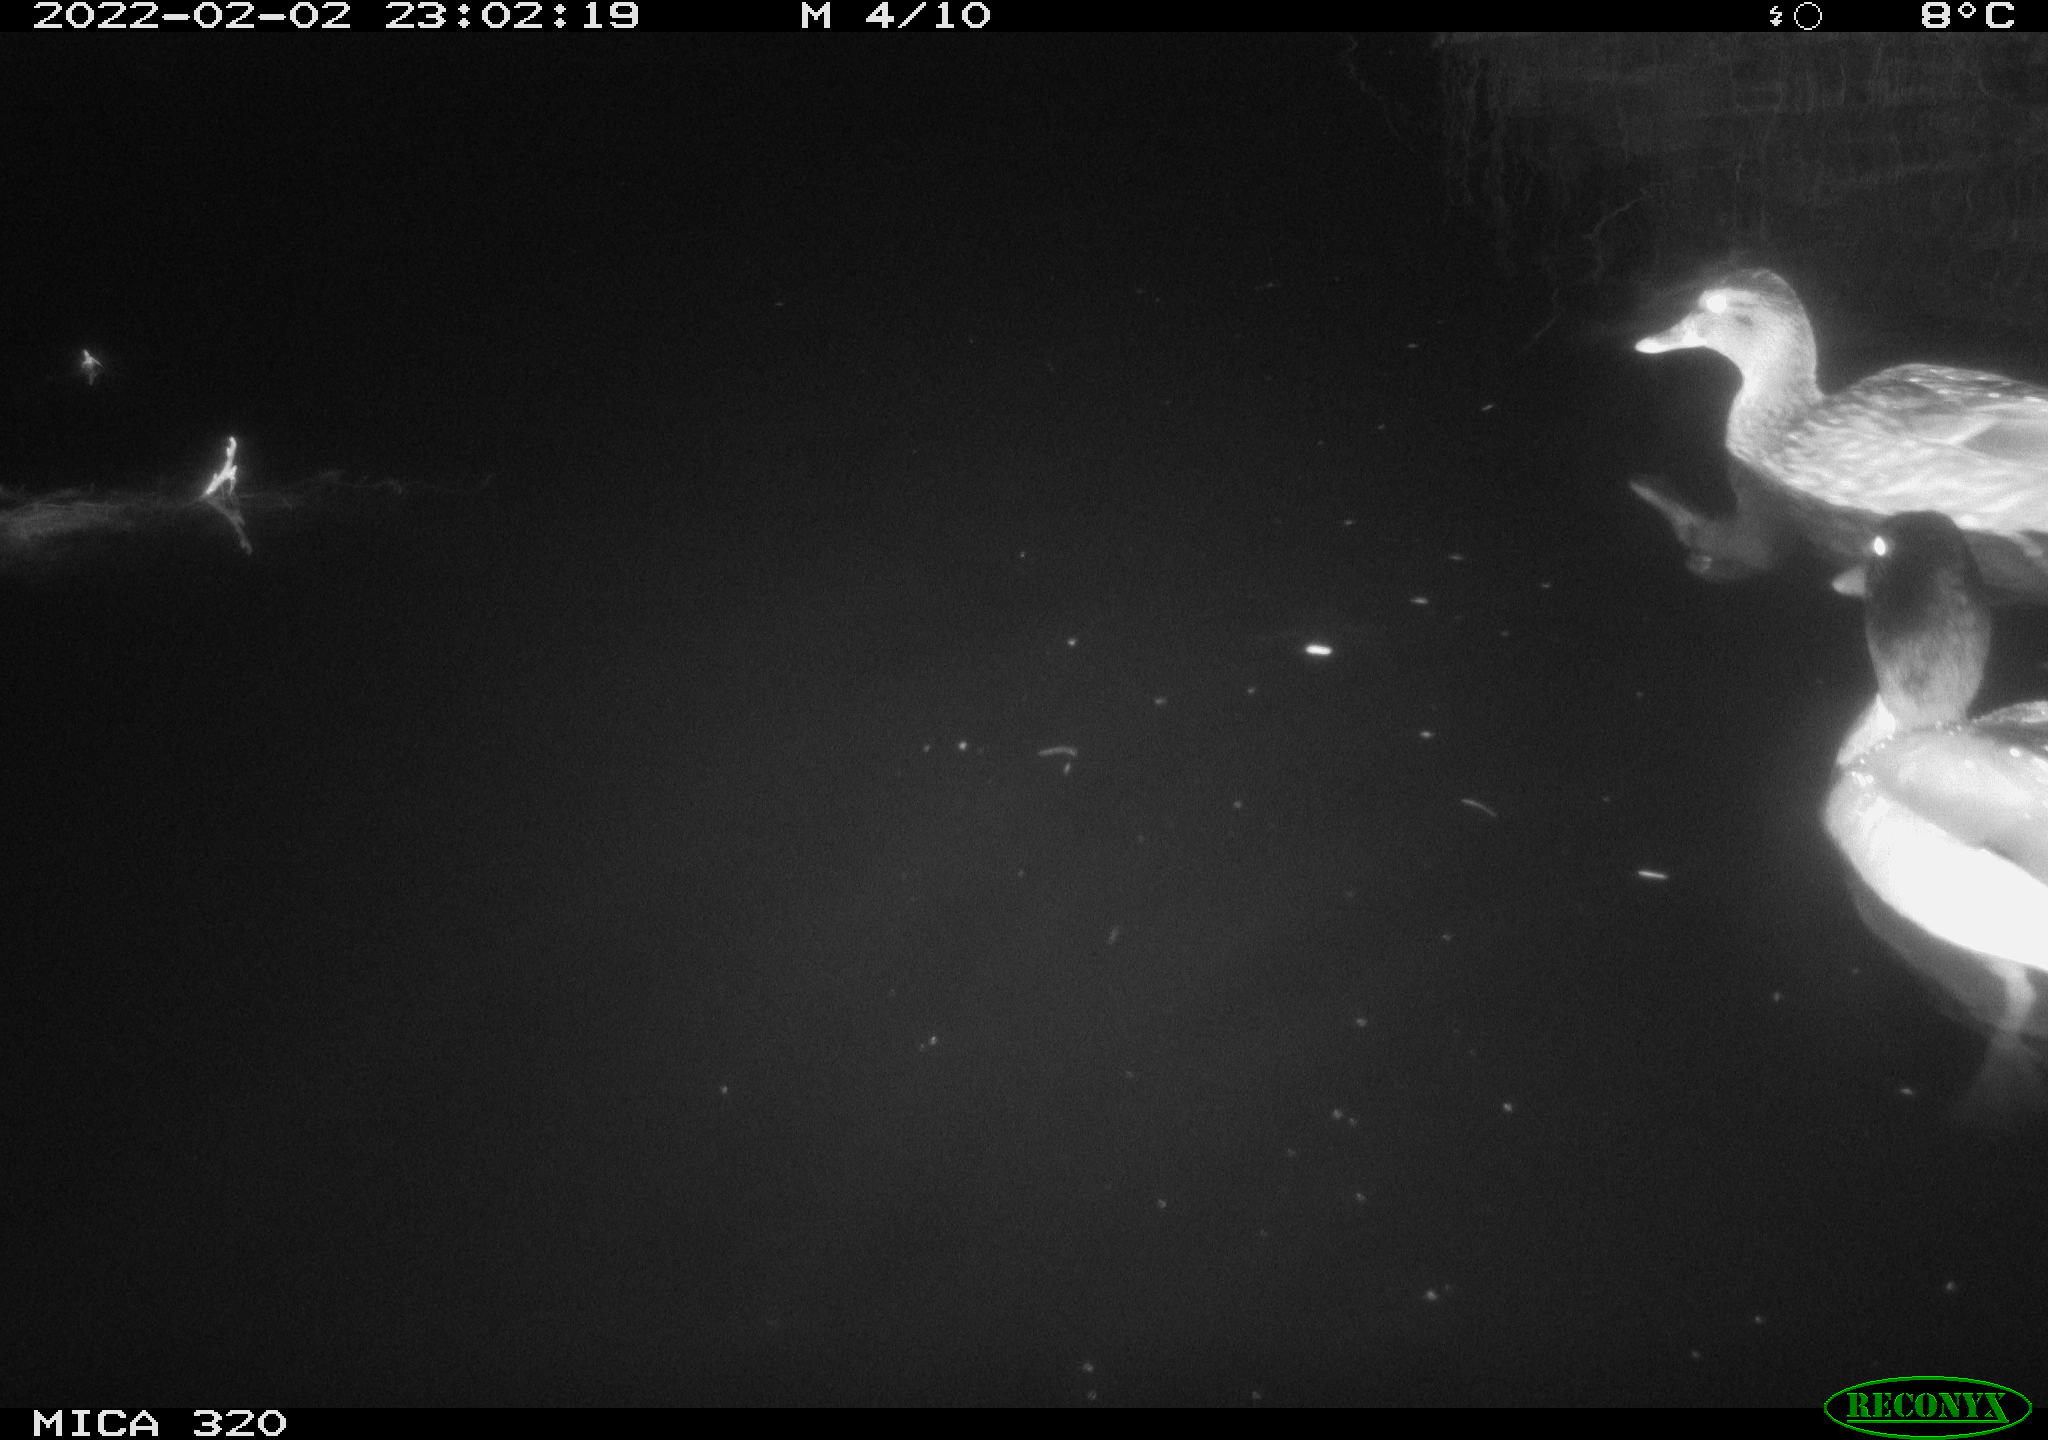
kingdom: Animalia
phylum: Chordata
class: Aves
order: Anseriformes
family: Anatidae
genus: Anas
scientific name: Anas
